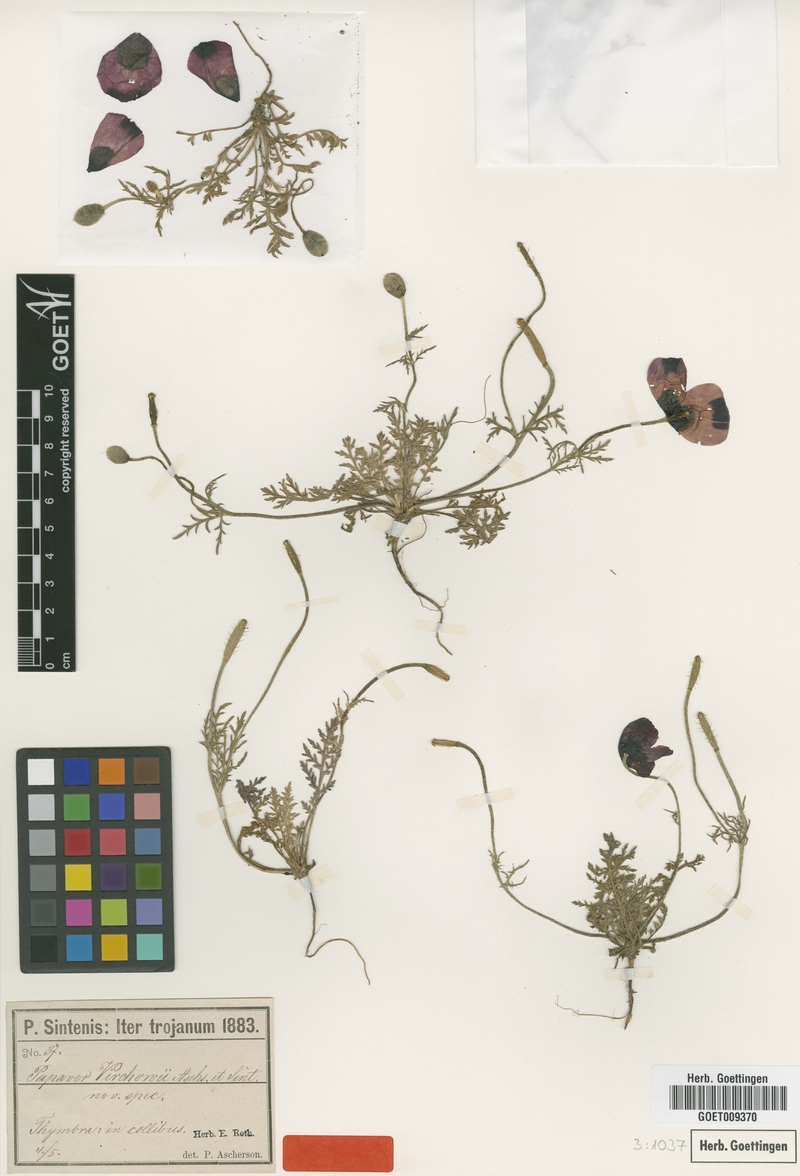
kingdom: Plantae
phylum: Tracheophyta
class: Magnoliopsida
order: Ranunculales
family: Papaveraceae
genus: Roemeria
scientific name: Roemeria virchowii
